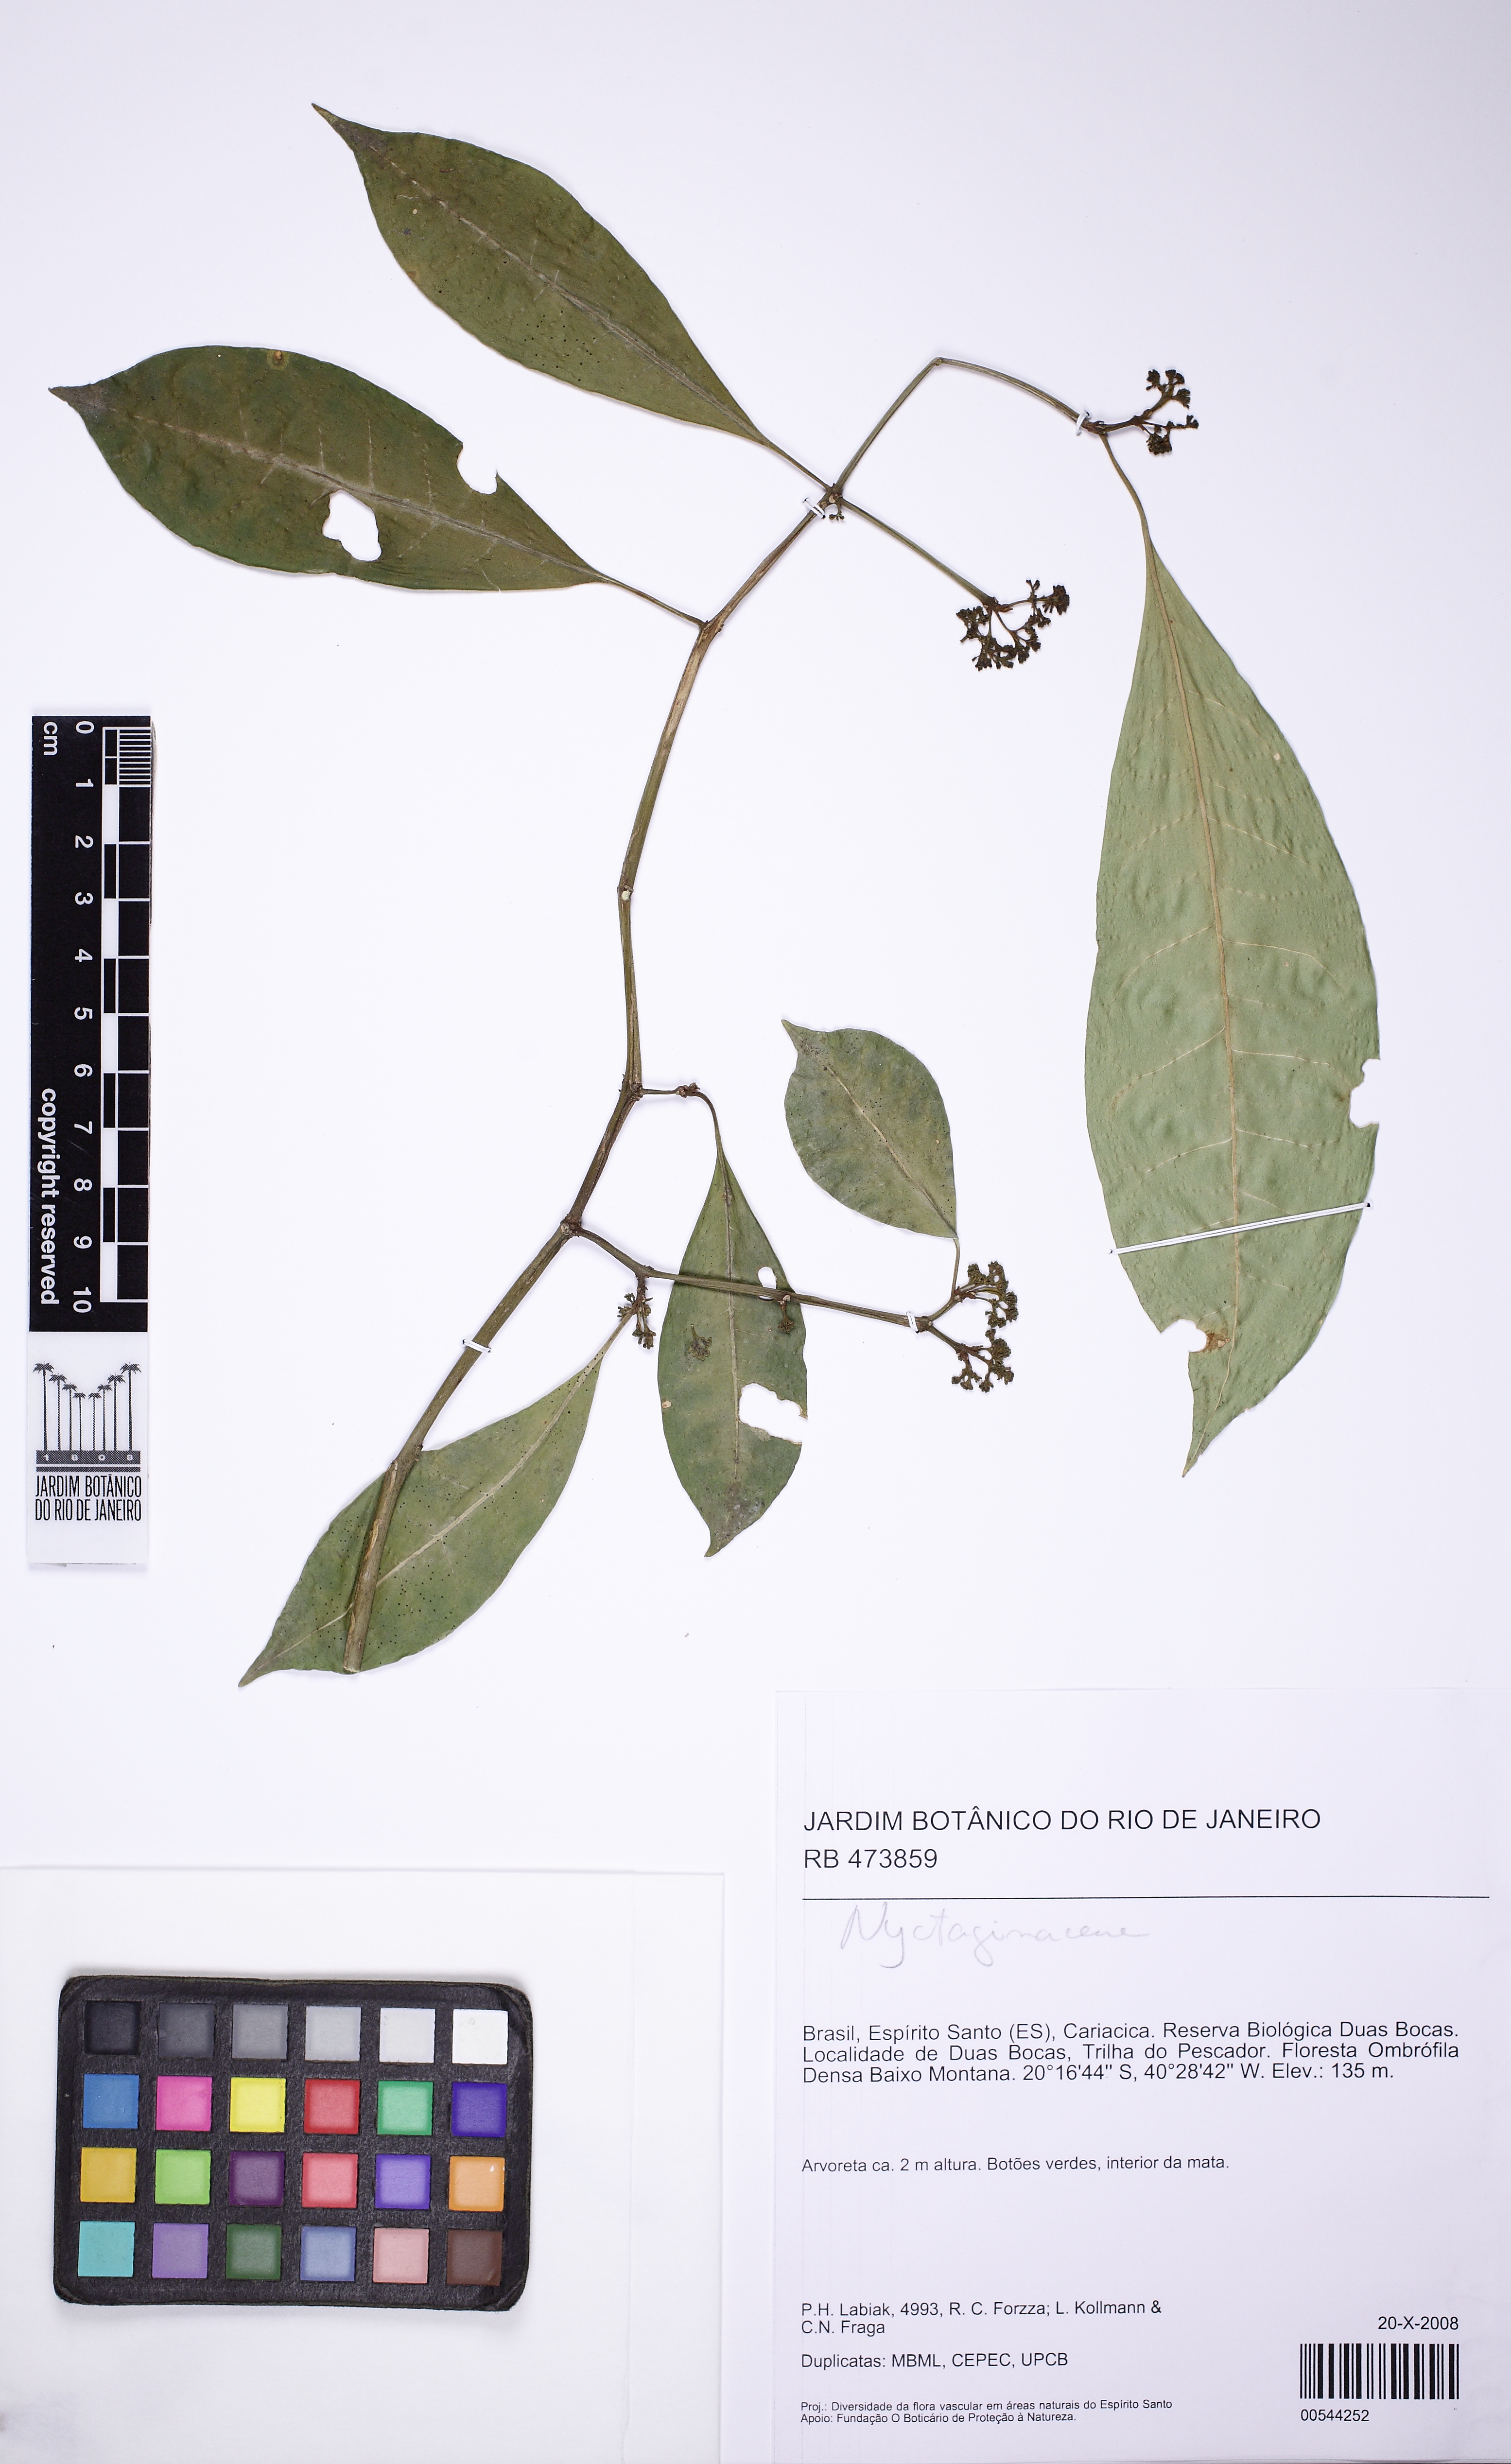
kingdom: Plantae
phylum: Tracheophyta
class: Magnoliopsida
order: Caryophyllales
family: Nyctaginaceae
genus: Guapira
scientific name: Guapira opposita
